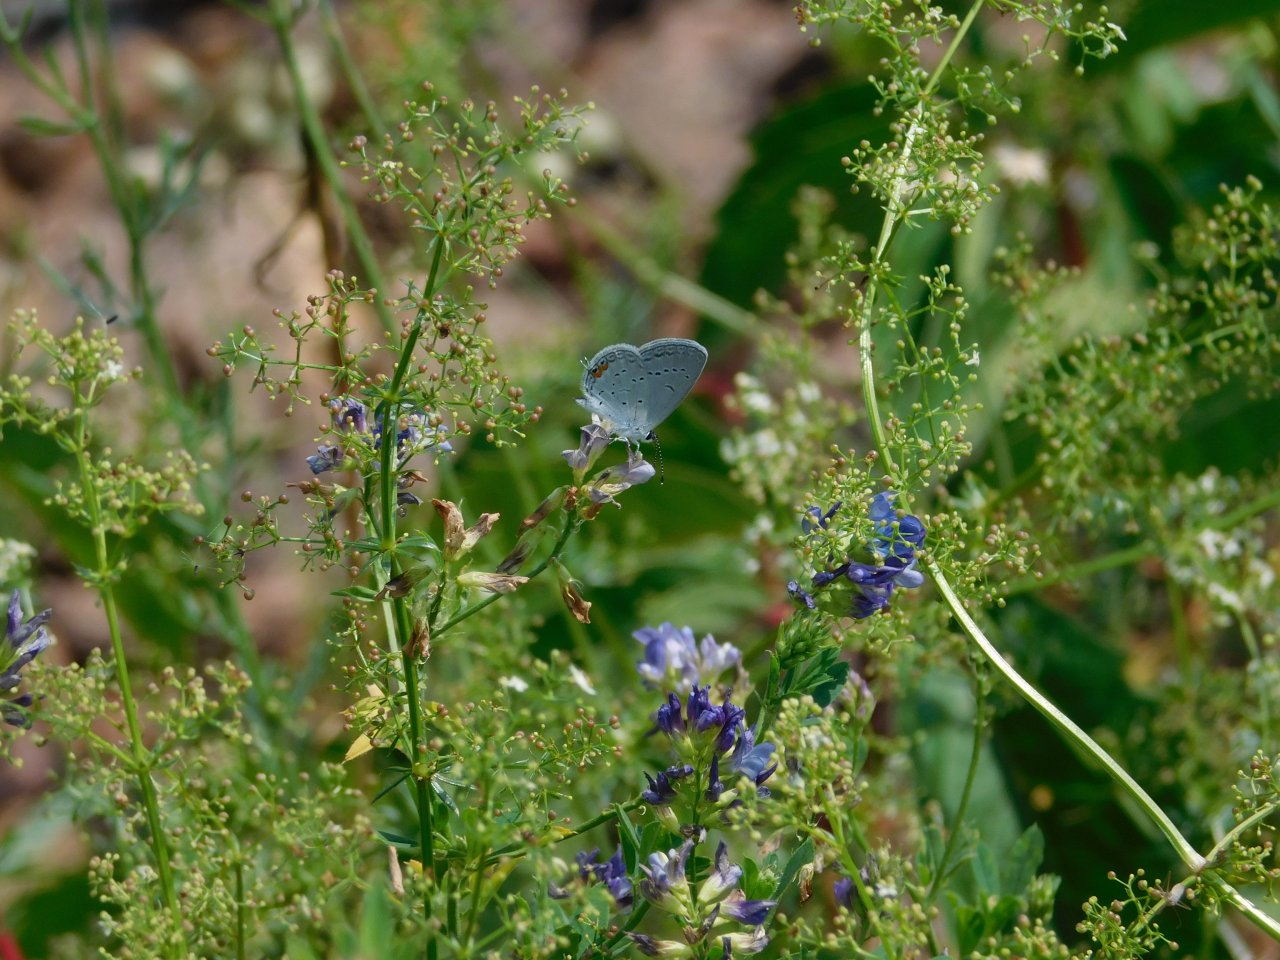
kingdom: Animalia
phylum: Arthropoda
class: Insecta
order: Lepidoptera
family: Lycaenidae
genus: Elkalyce
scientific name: Elkalyce comyntas
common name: Eastern Tailed-Blue
